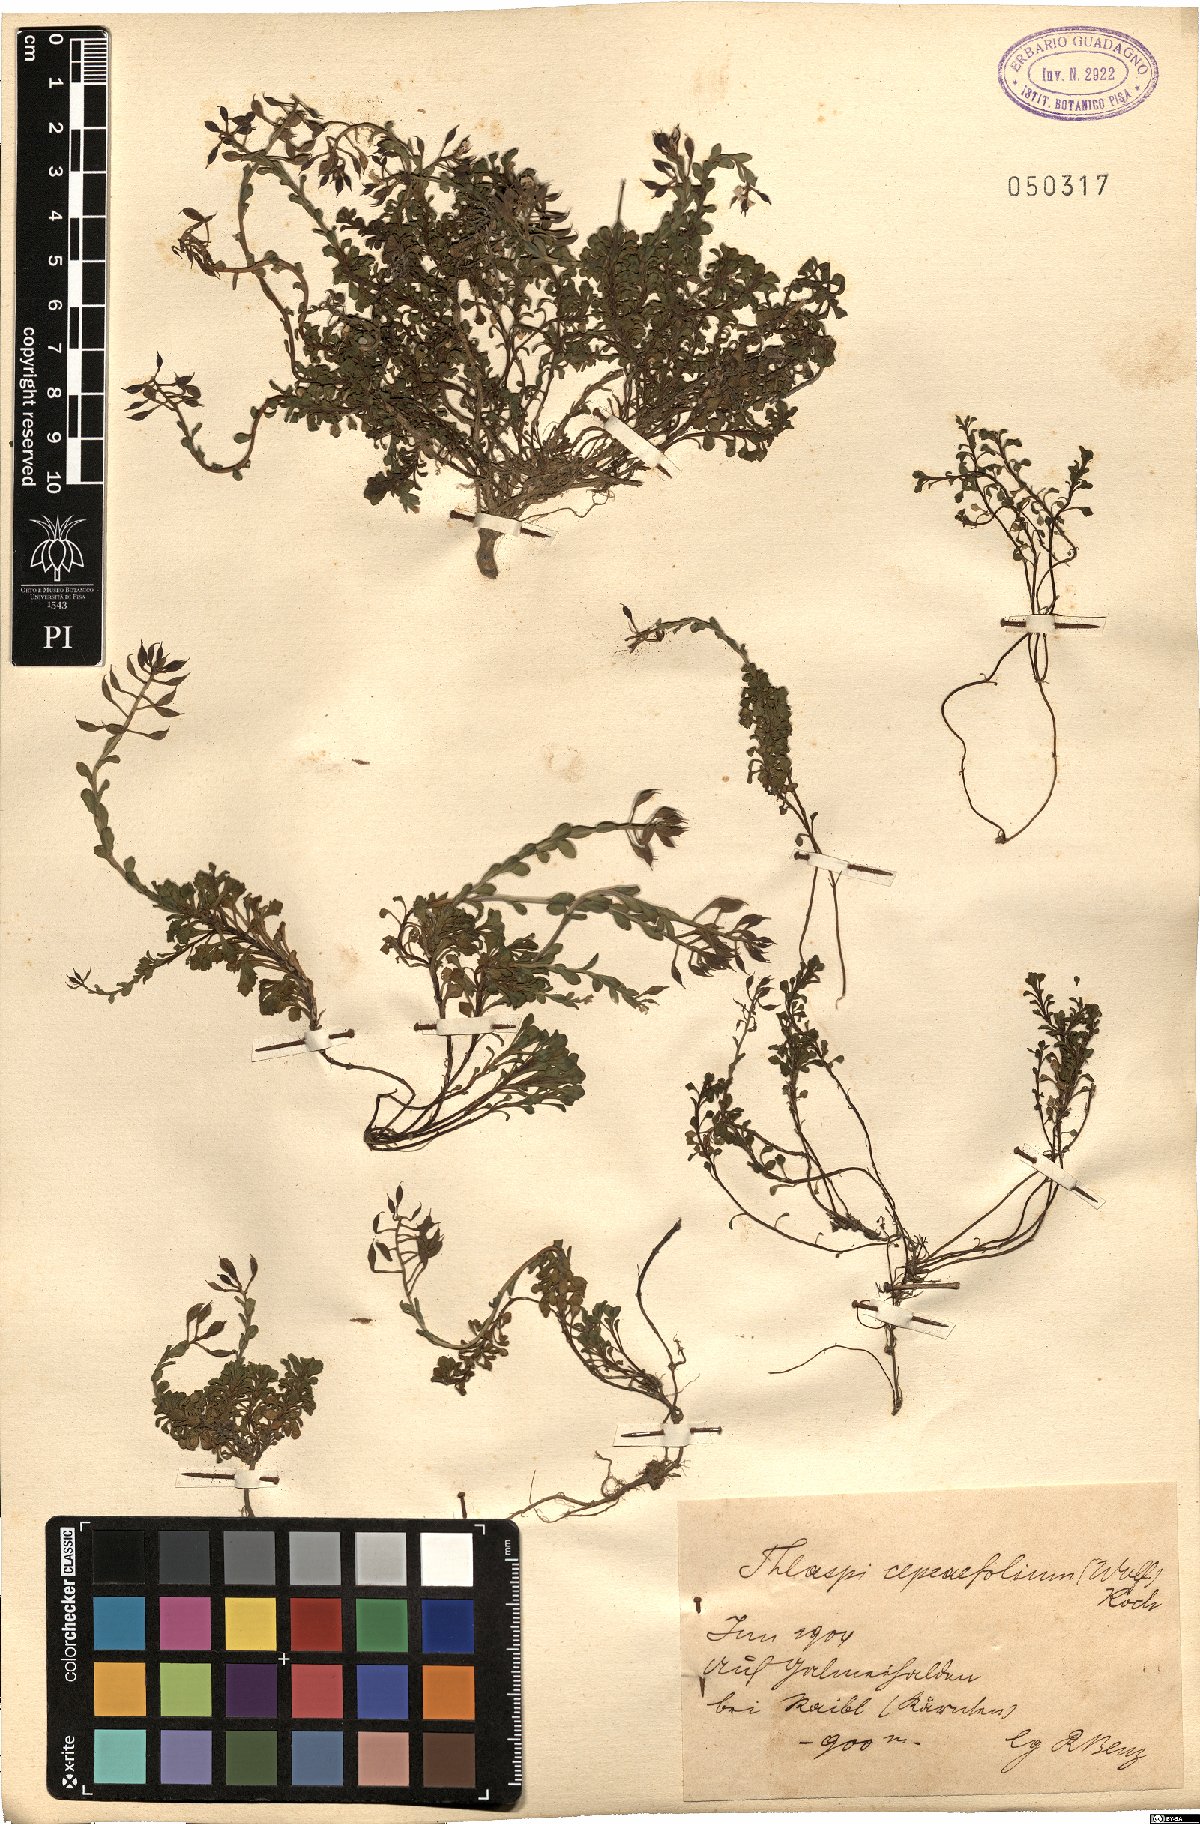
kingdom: Plantae
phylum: Tracheophyta
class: Magnoliopsida
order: Brassicales
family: Brassicaceae
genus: Noccaea
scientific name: Noccaea cepaeifolia
